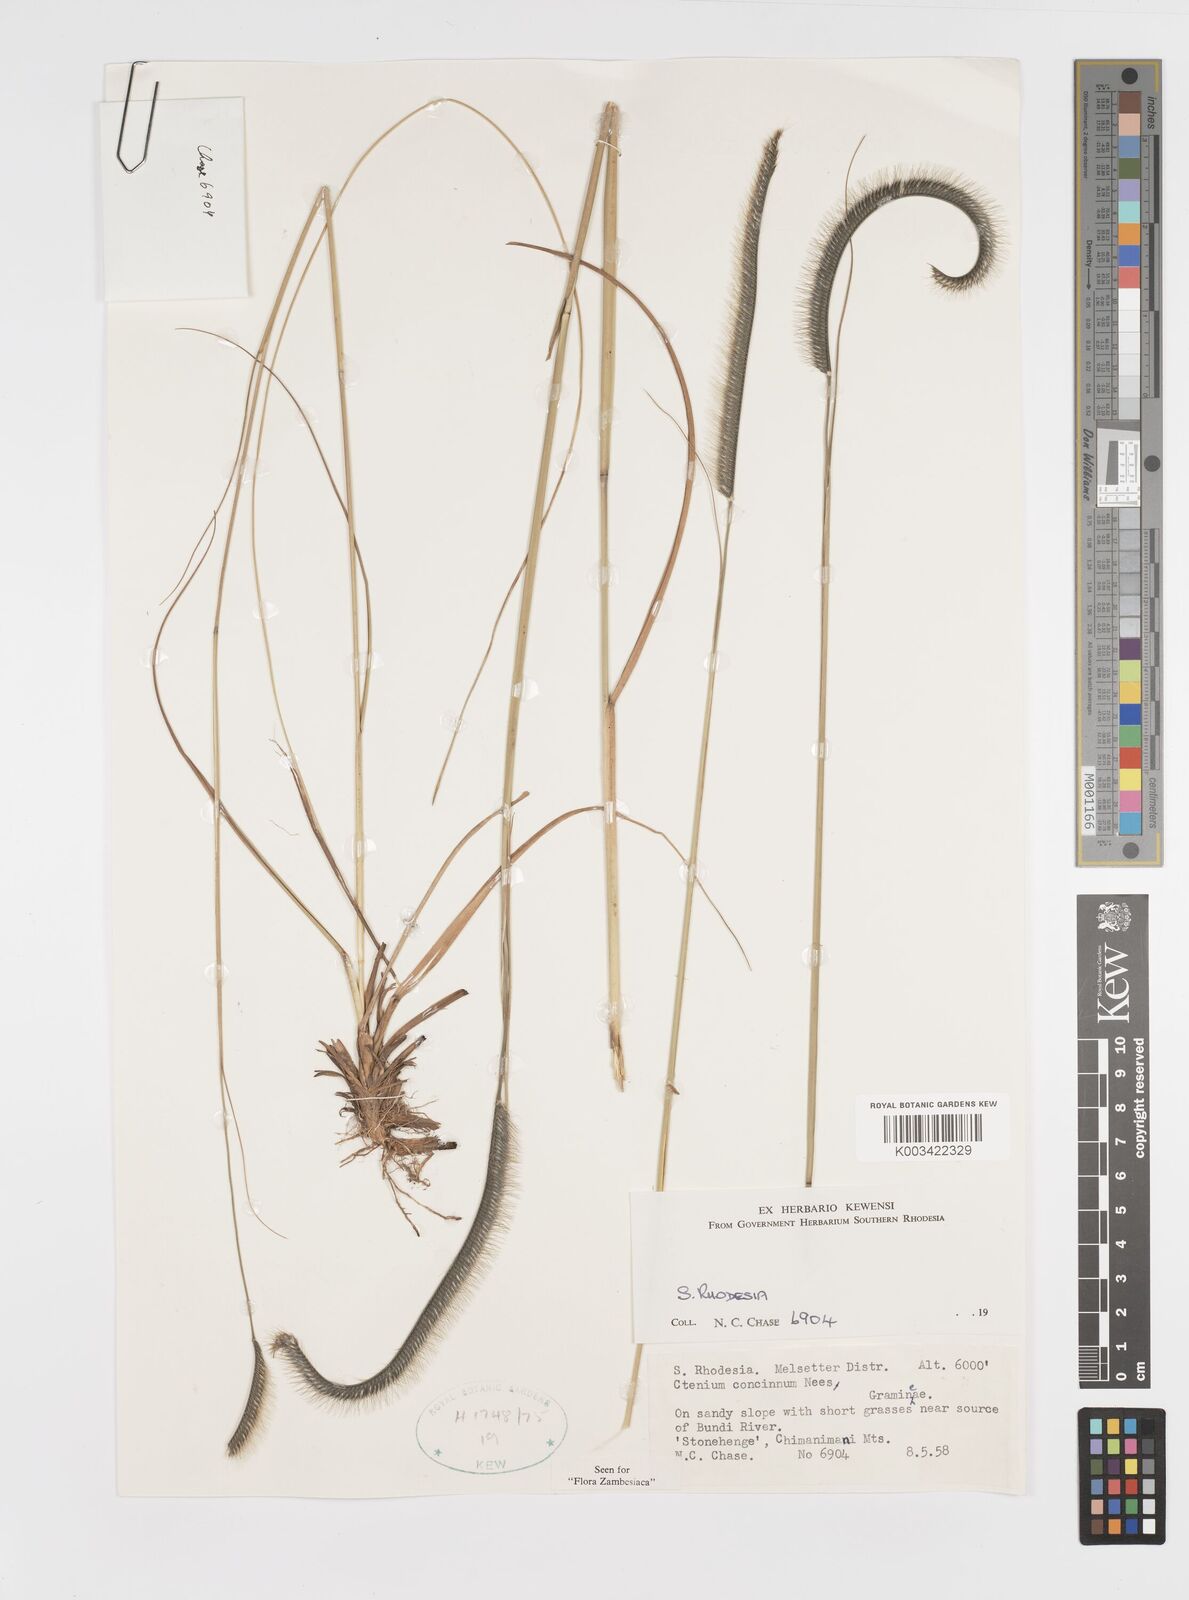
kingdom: Plantae
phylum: Tracheophyta
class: Liliopsida
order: Poales
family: Poaceae
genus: Ctenium
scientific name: Ctenium concinnum
